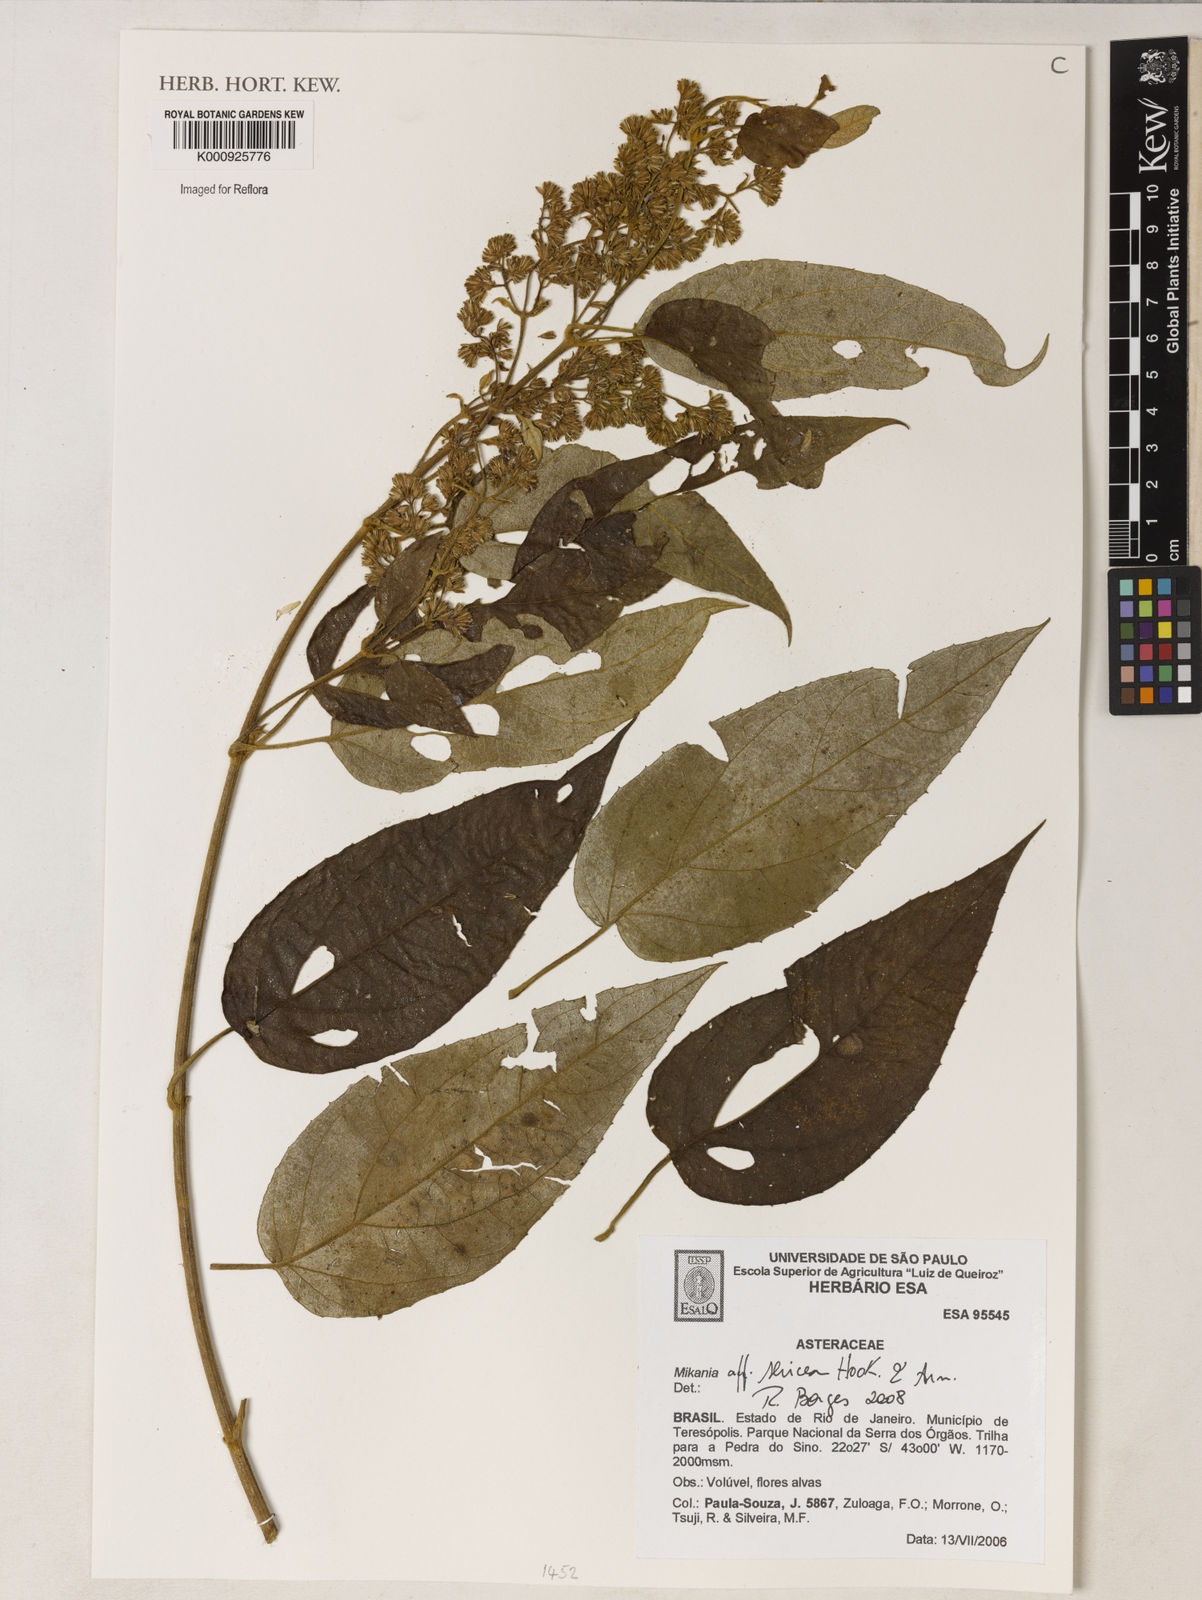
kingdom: Plantae
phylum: Tracheophyta
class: Magnoliopsida
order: Asterales
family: Asteraceae
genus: Mikania
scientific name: Mikania banisteriae
